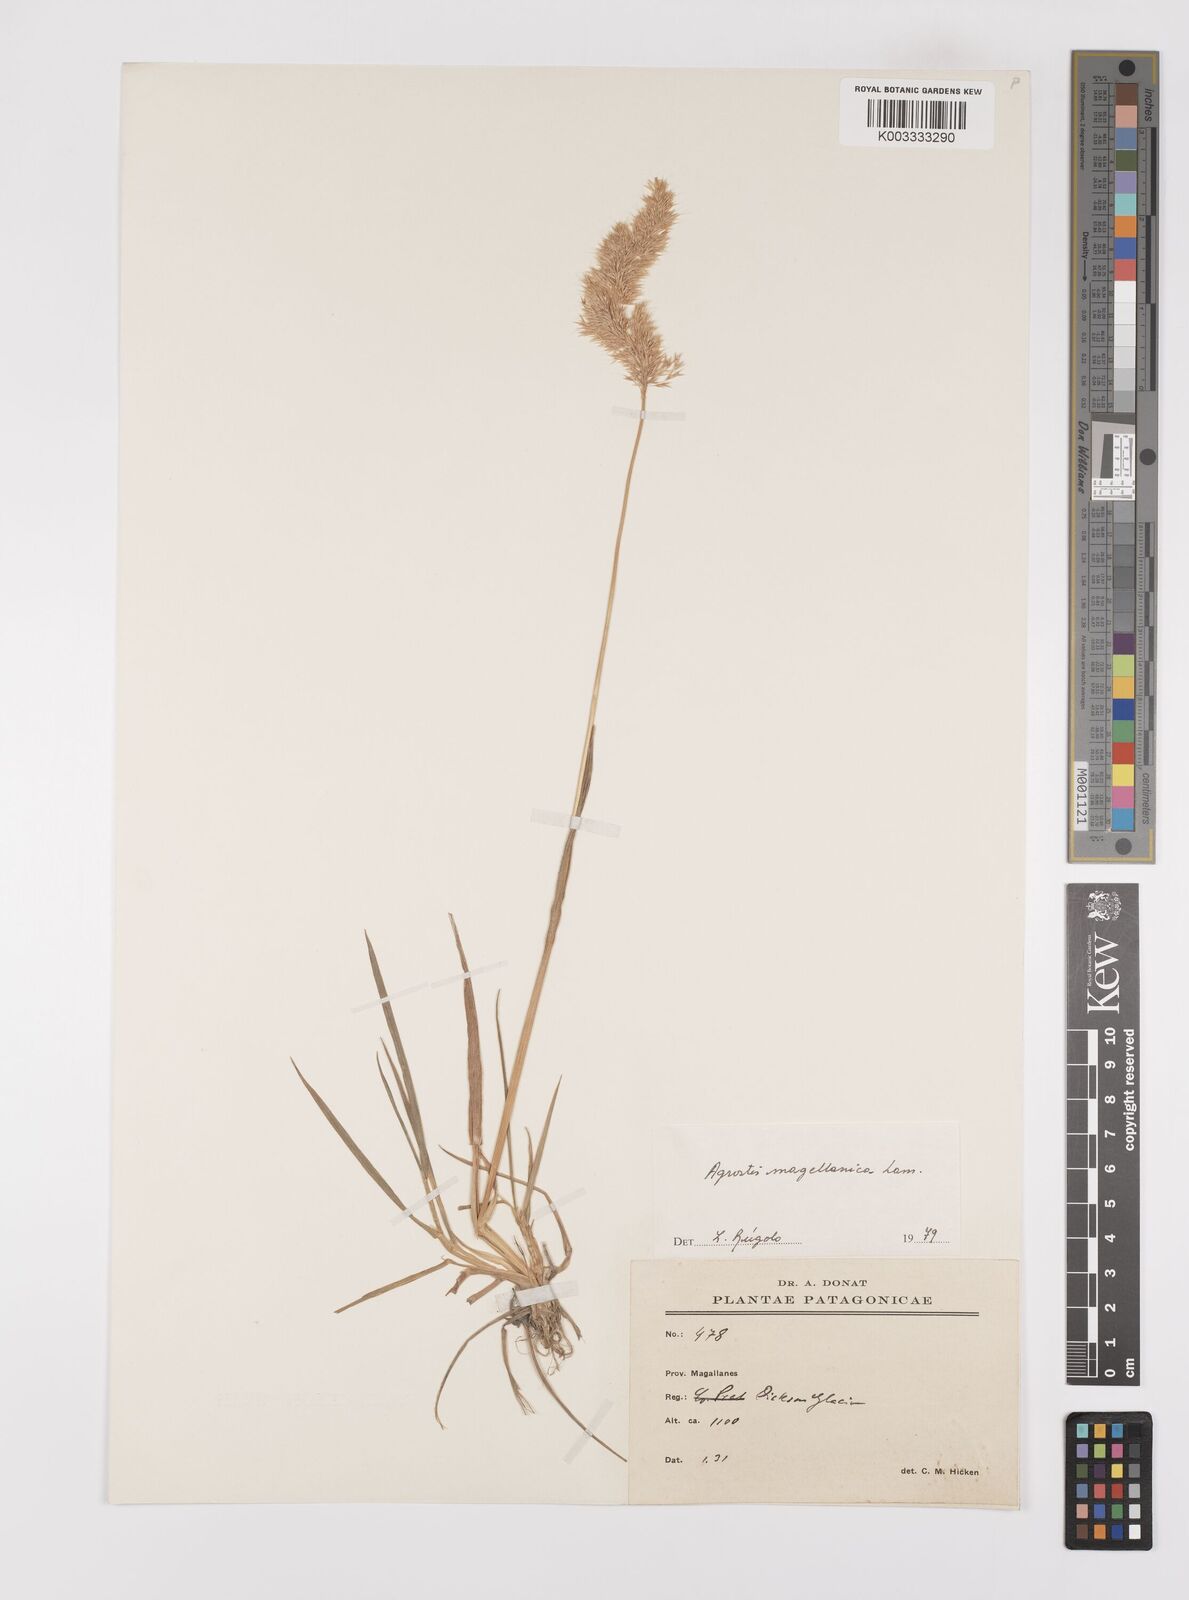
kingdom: Plantae
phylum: Tracheophyta
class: Liliopsida
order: Poales
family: Poaceae
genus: Polypogon
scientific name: Polypogon magellanicus
